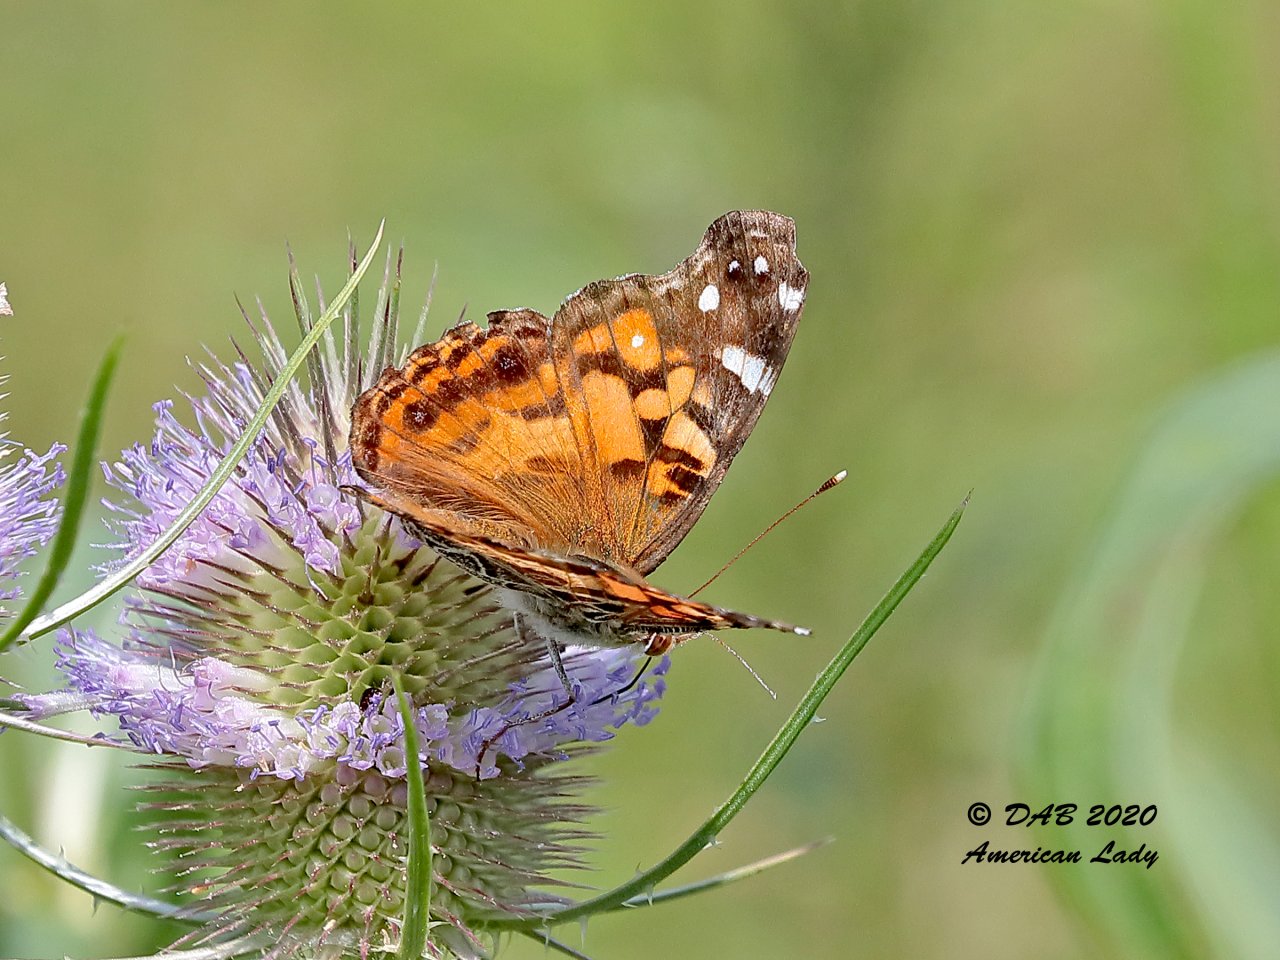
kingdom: Animalia
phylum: Arthropoda
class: Insecta
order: Lepidoptera
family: Nymphalidae
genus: Vanessa
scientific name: Vanessa virginiensis
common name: American Lady
